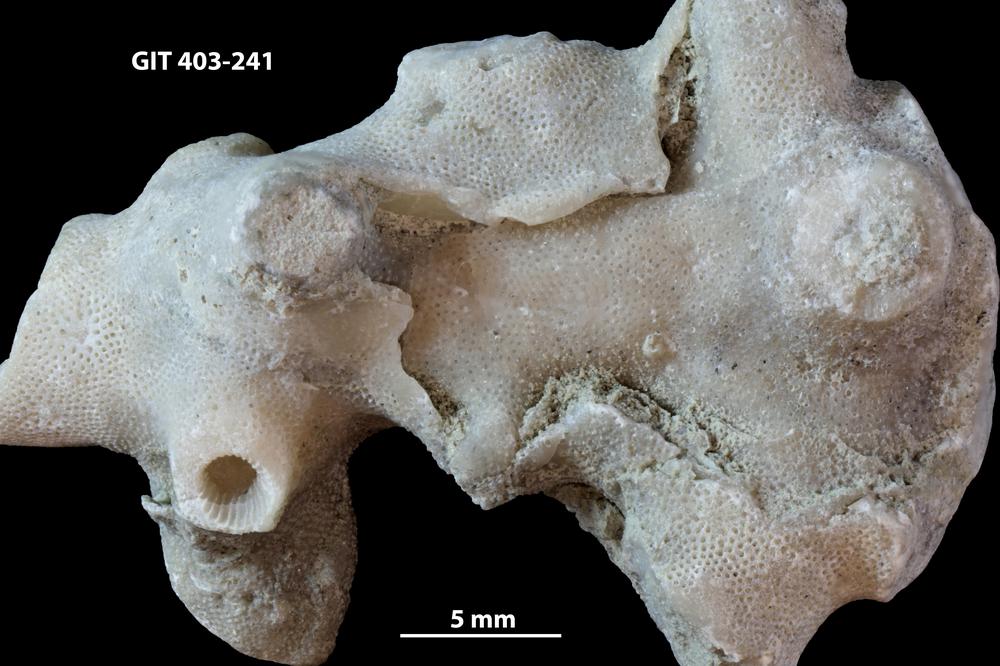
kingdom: Animalia
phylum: Bryozoa
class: Stenolaemata
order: Cystoporida
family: Fistuliporidae
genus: Fistulipora
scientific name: Fistulipora przhidolensis
